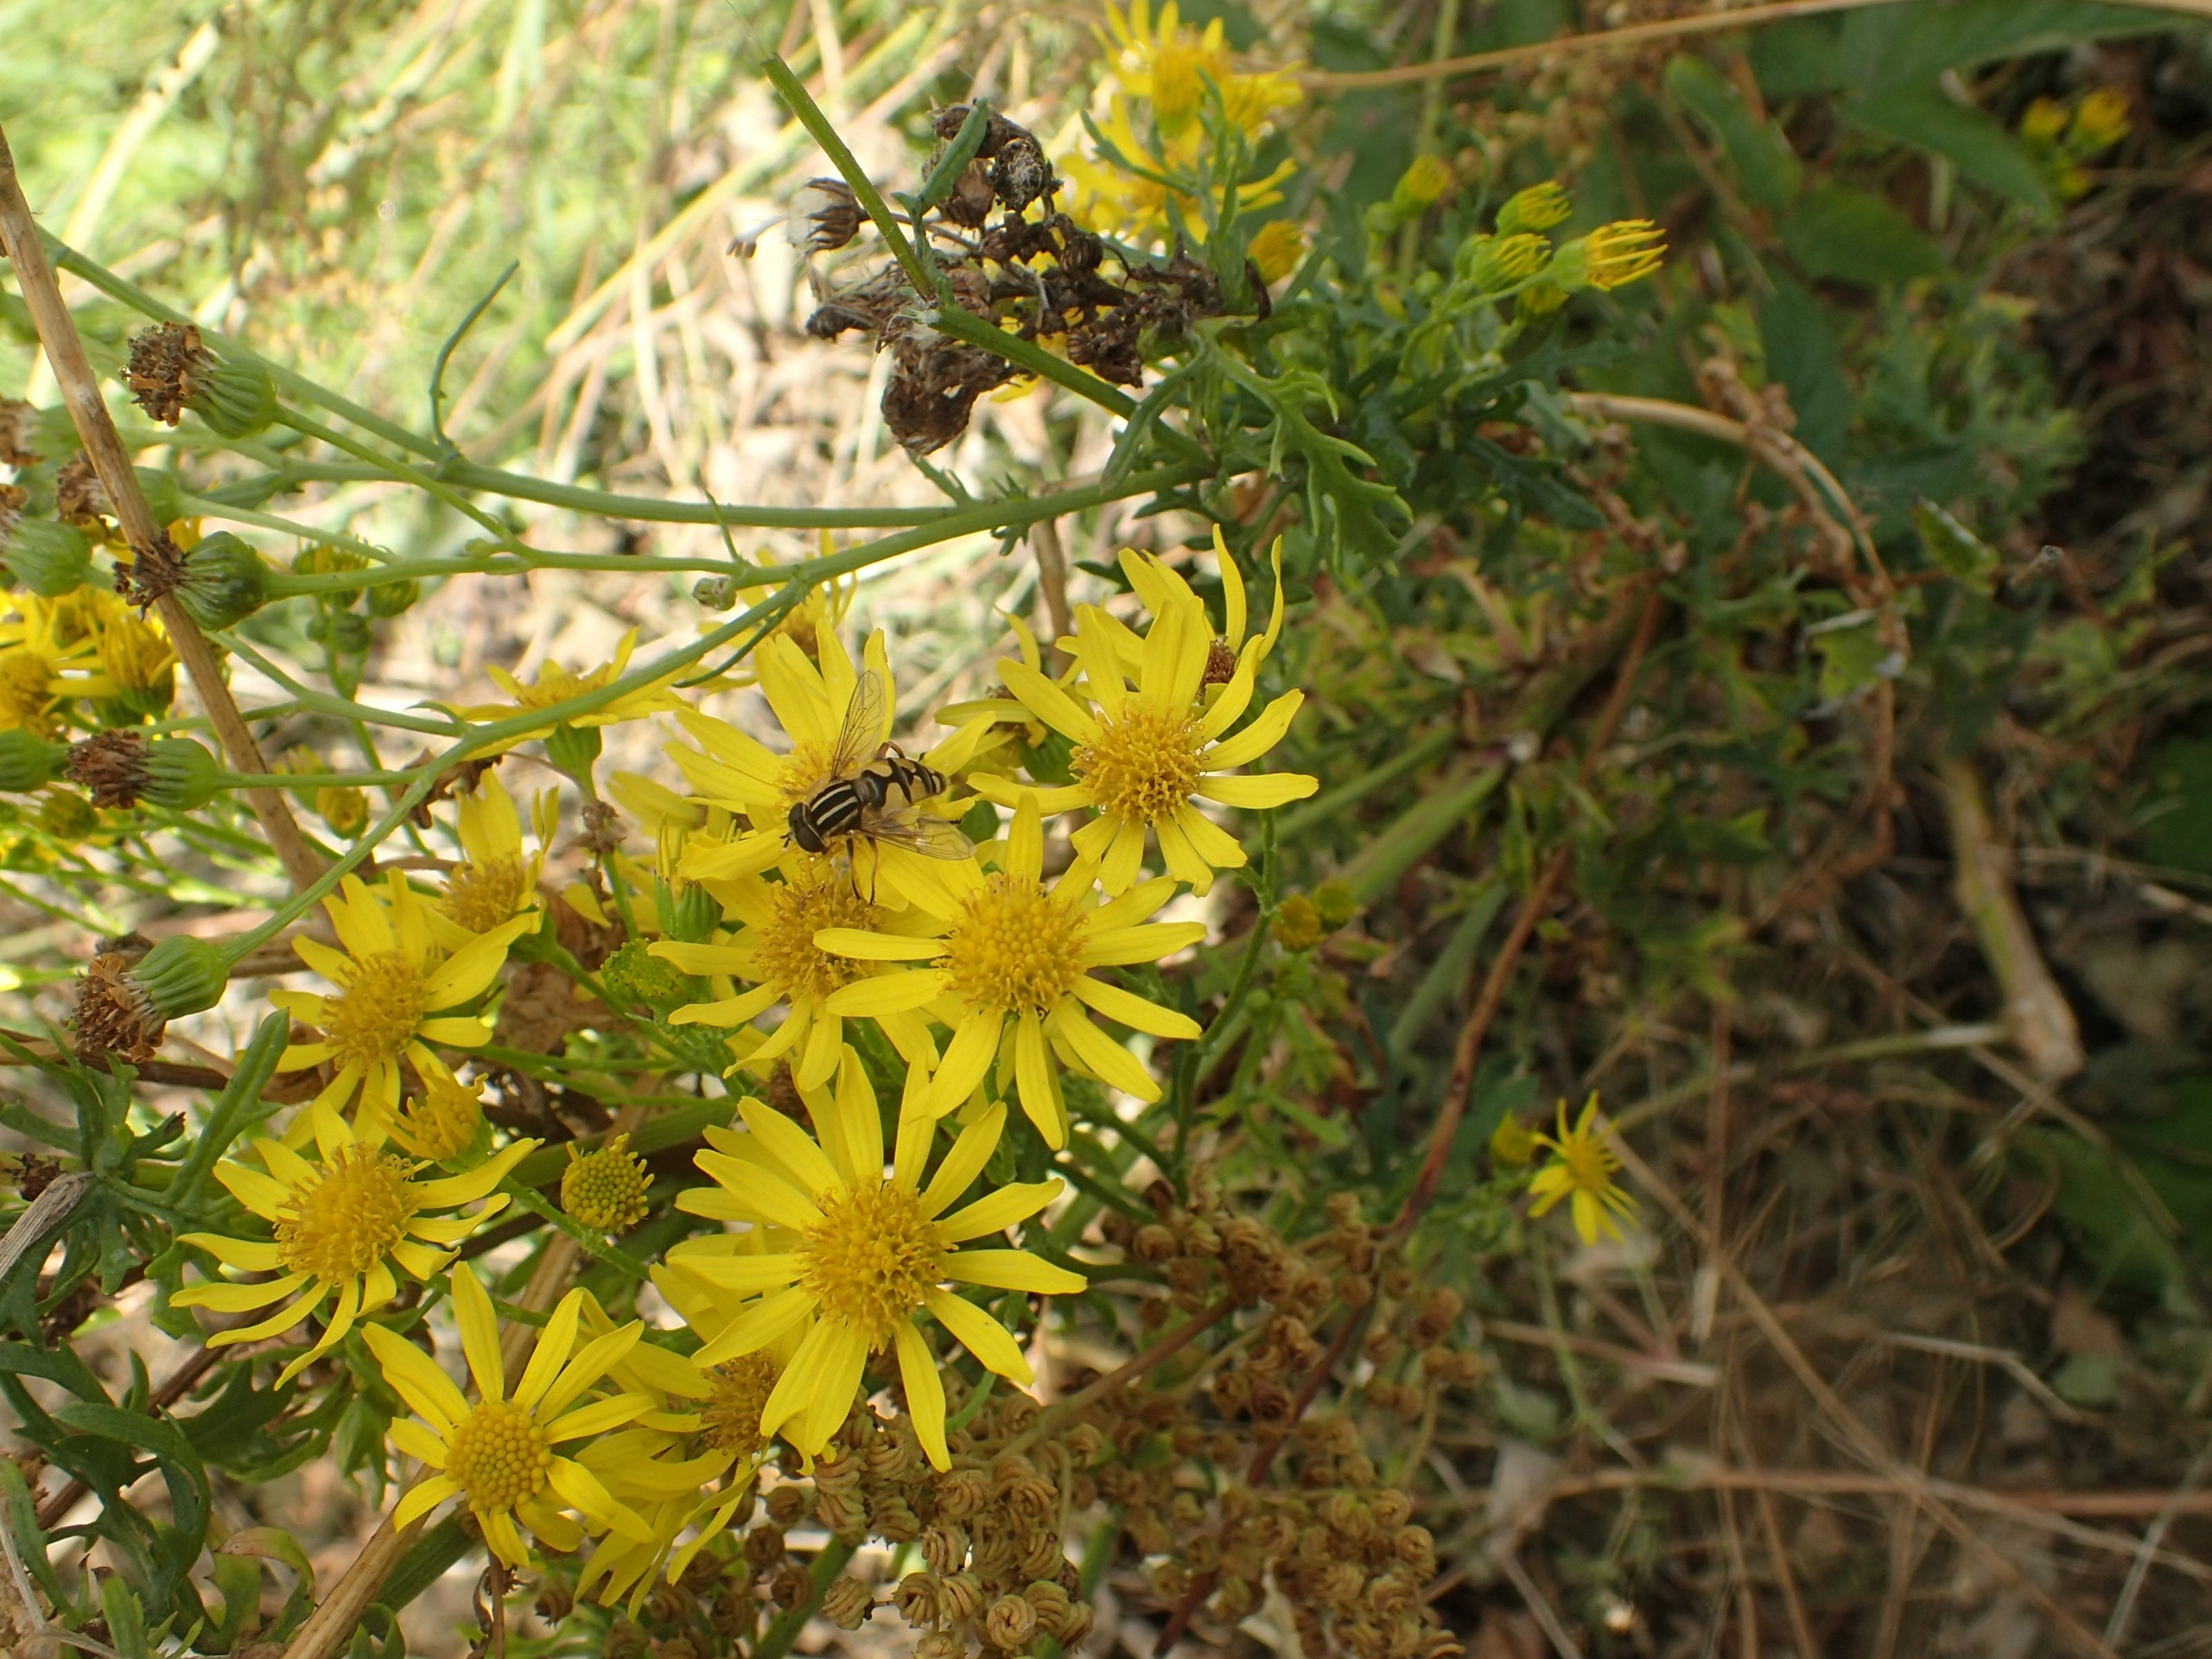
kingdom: Plantae
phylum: Tracheophyta
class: Magnoliopsida
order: Asterales
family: Asteraceae
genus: Jacobaea
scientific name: Jacobaea vulgaris
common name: Eng-brandbæger
